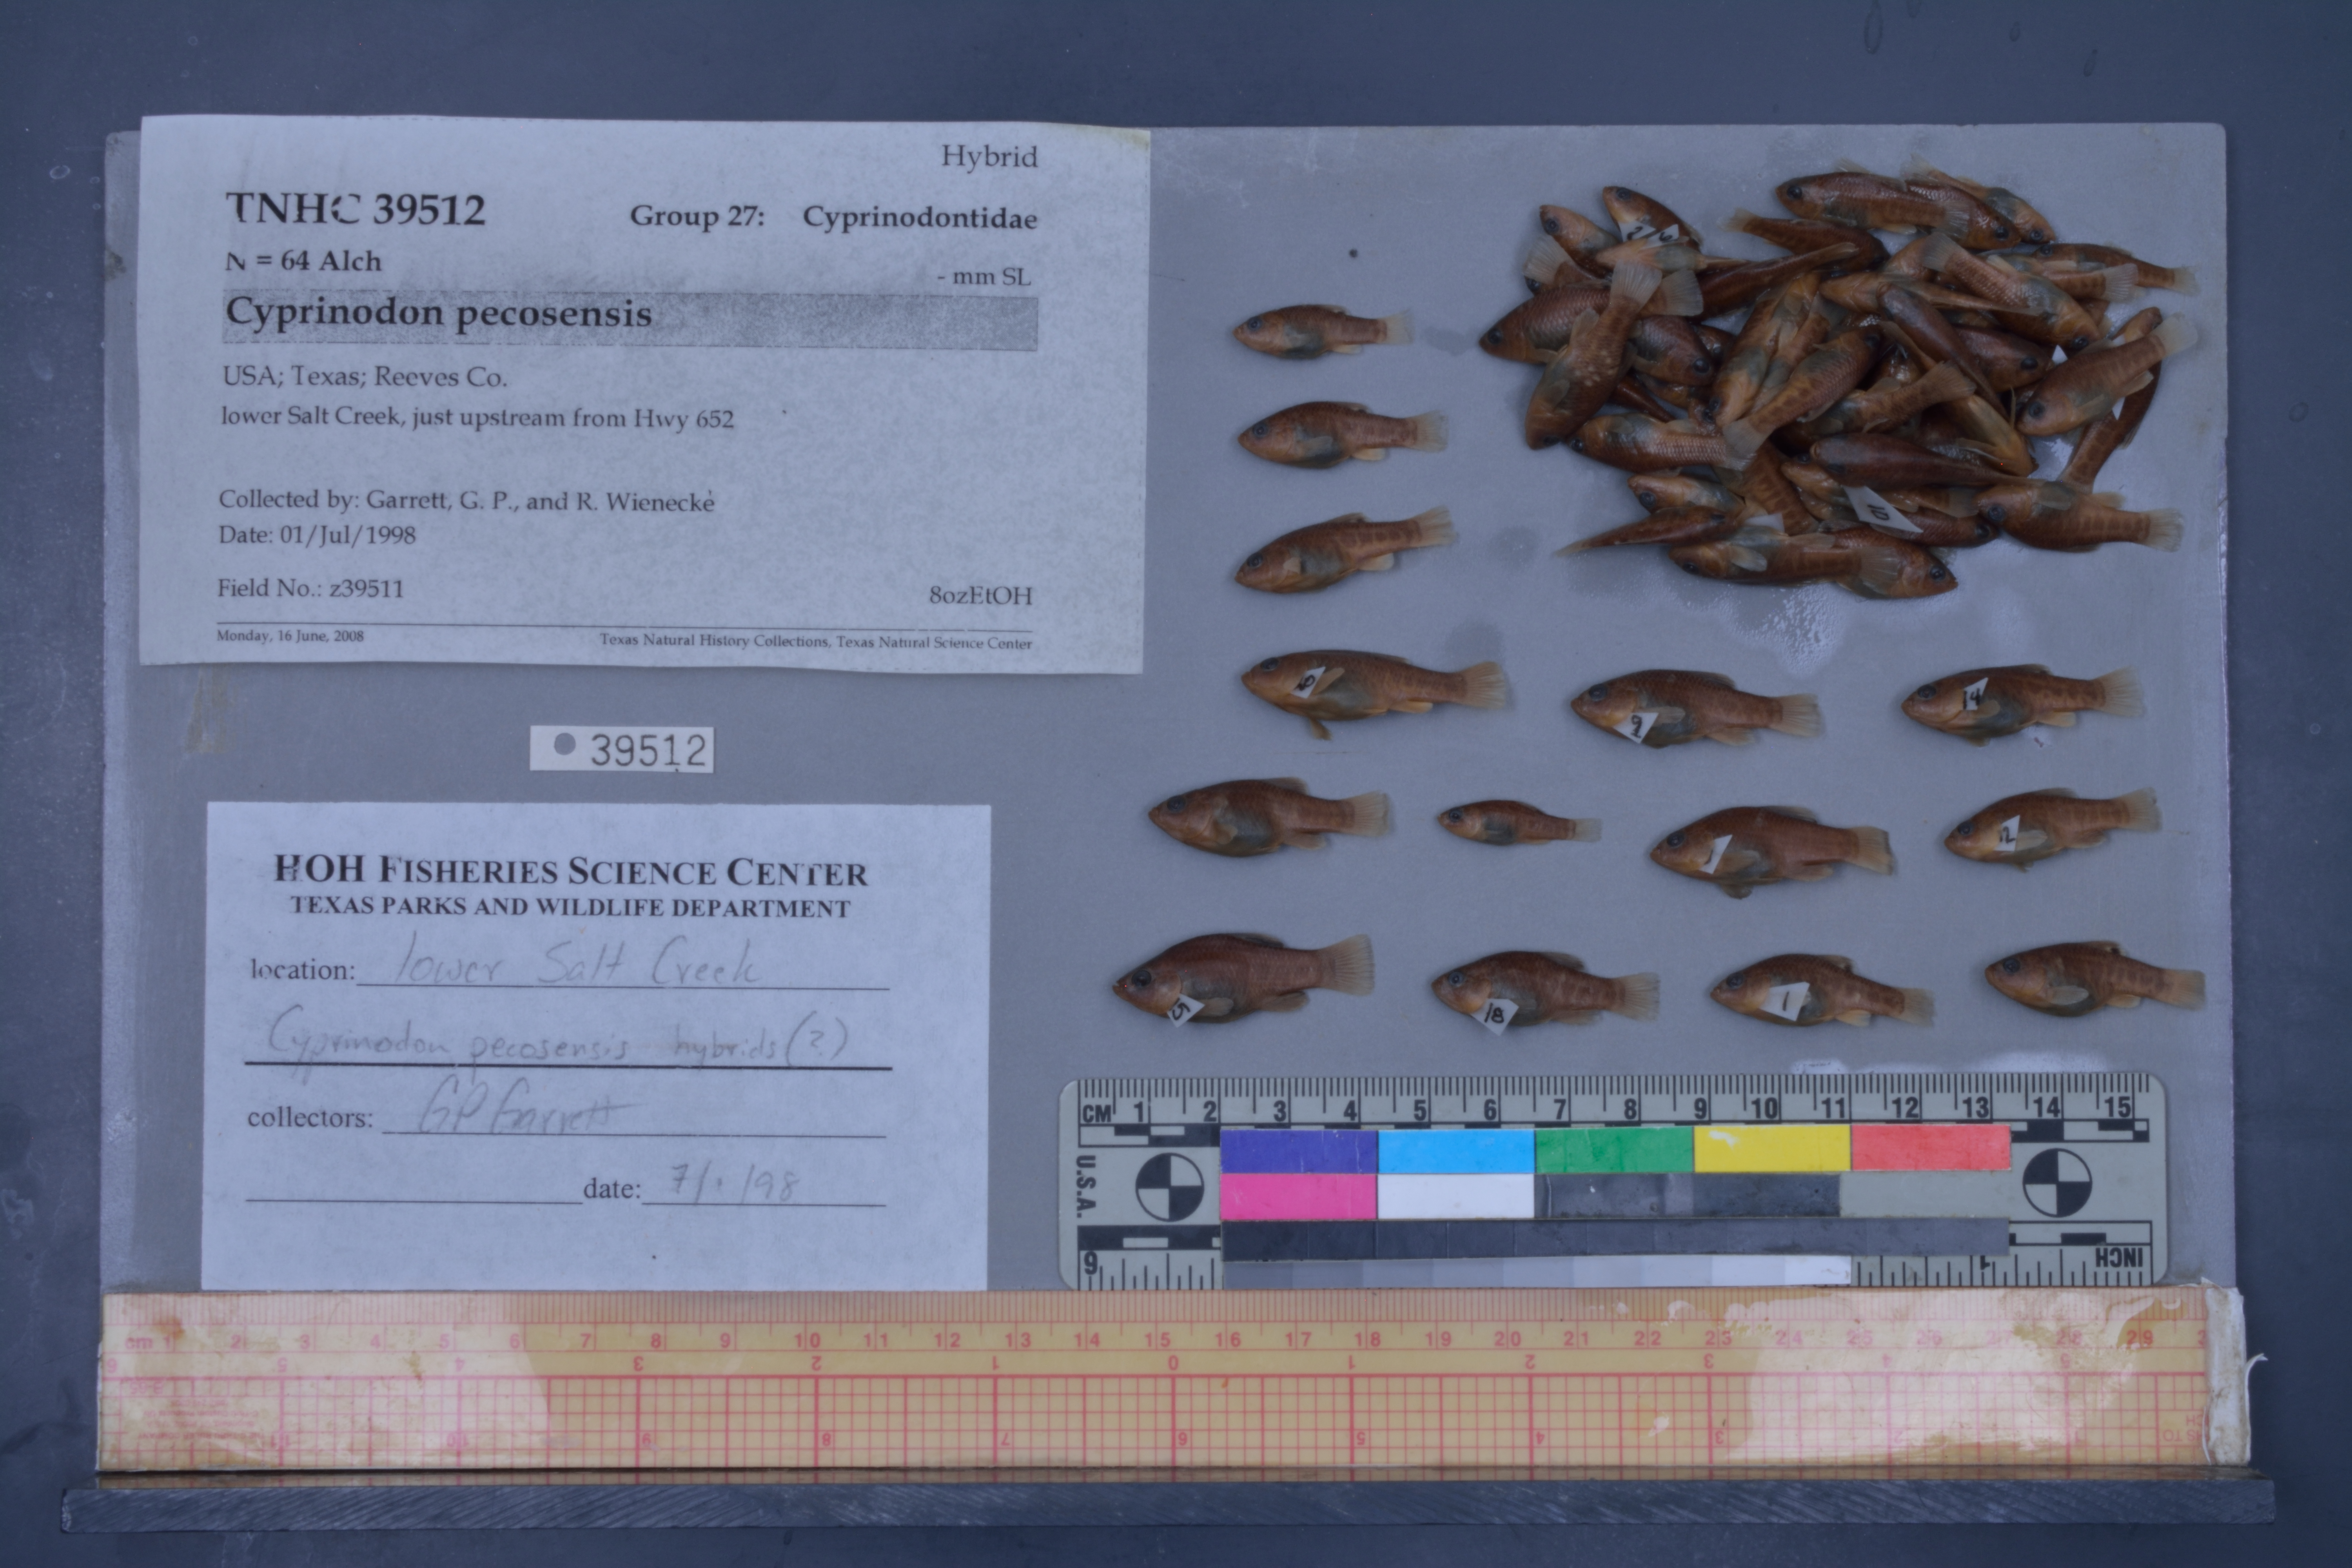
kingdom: Animalia
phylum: Chordata
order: Cyprinodontiformes
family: Cyprinodontidae
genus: Cyprinodon
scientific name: Cyprinodon pecosensis
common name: Pecos pupfish
